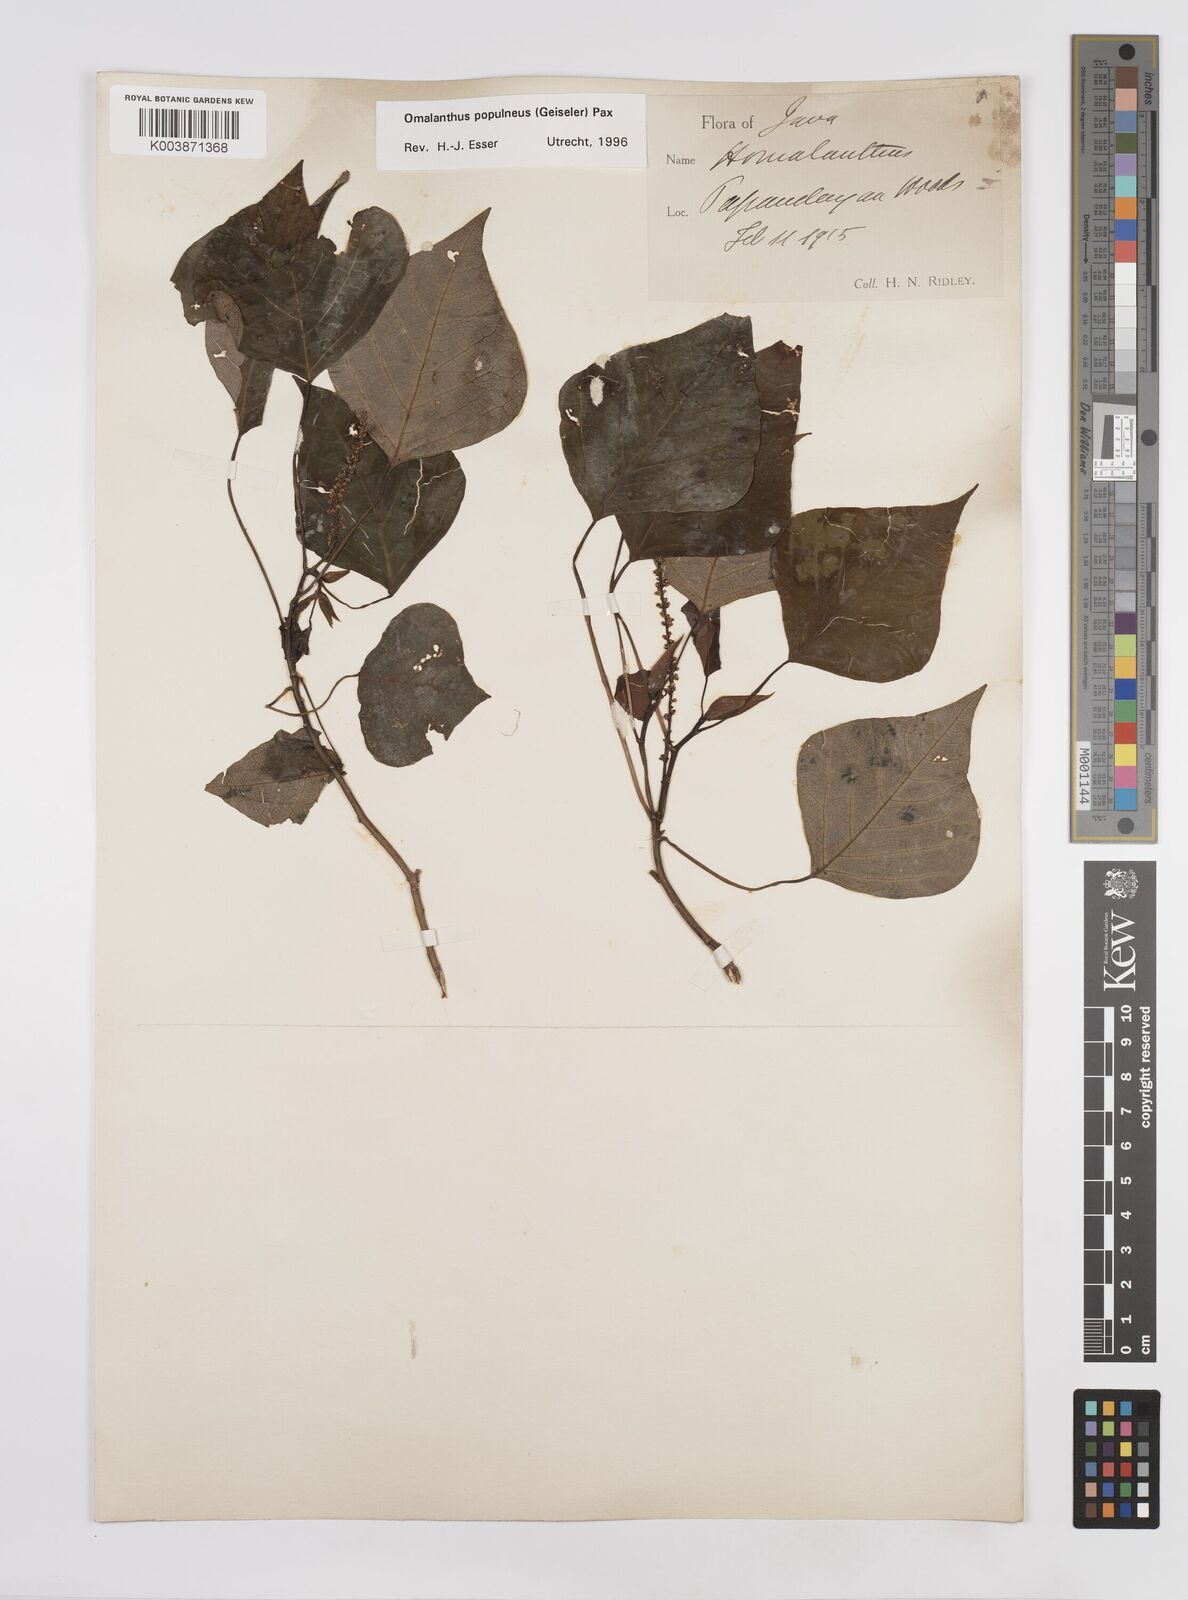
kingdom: Plantae
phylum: Tracheophyta
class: Magnoliopsida
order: Malpighiales
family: Euphorbiaceae
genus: Homalanthus
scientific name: Homalanthus populneus
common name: Spurge
